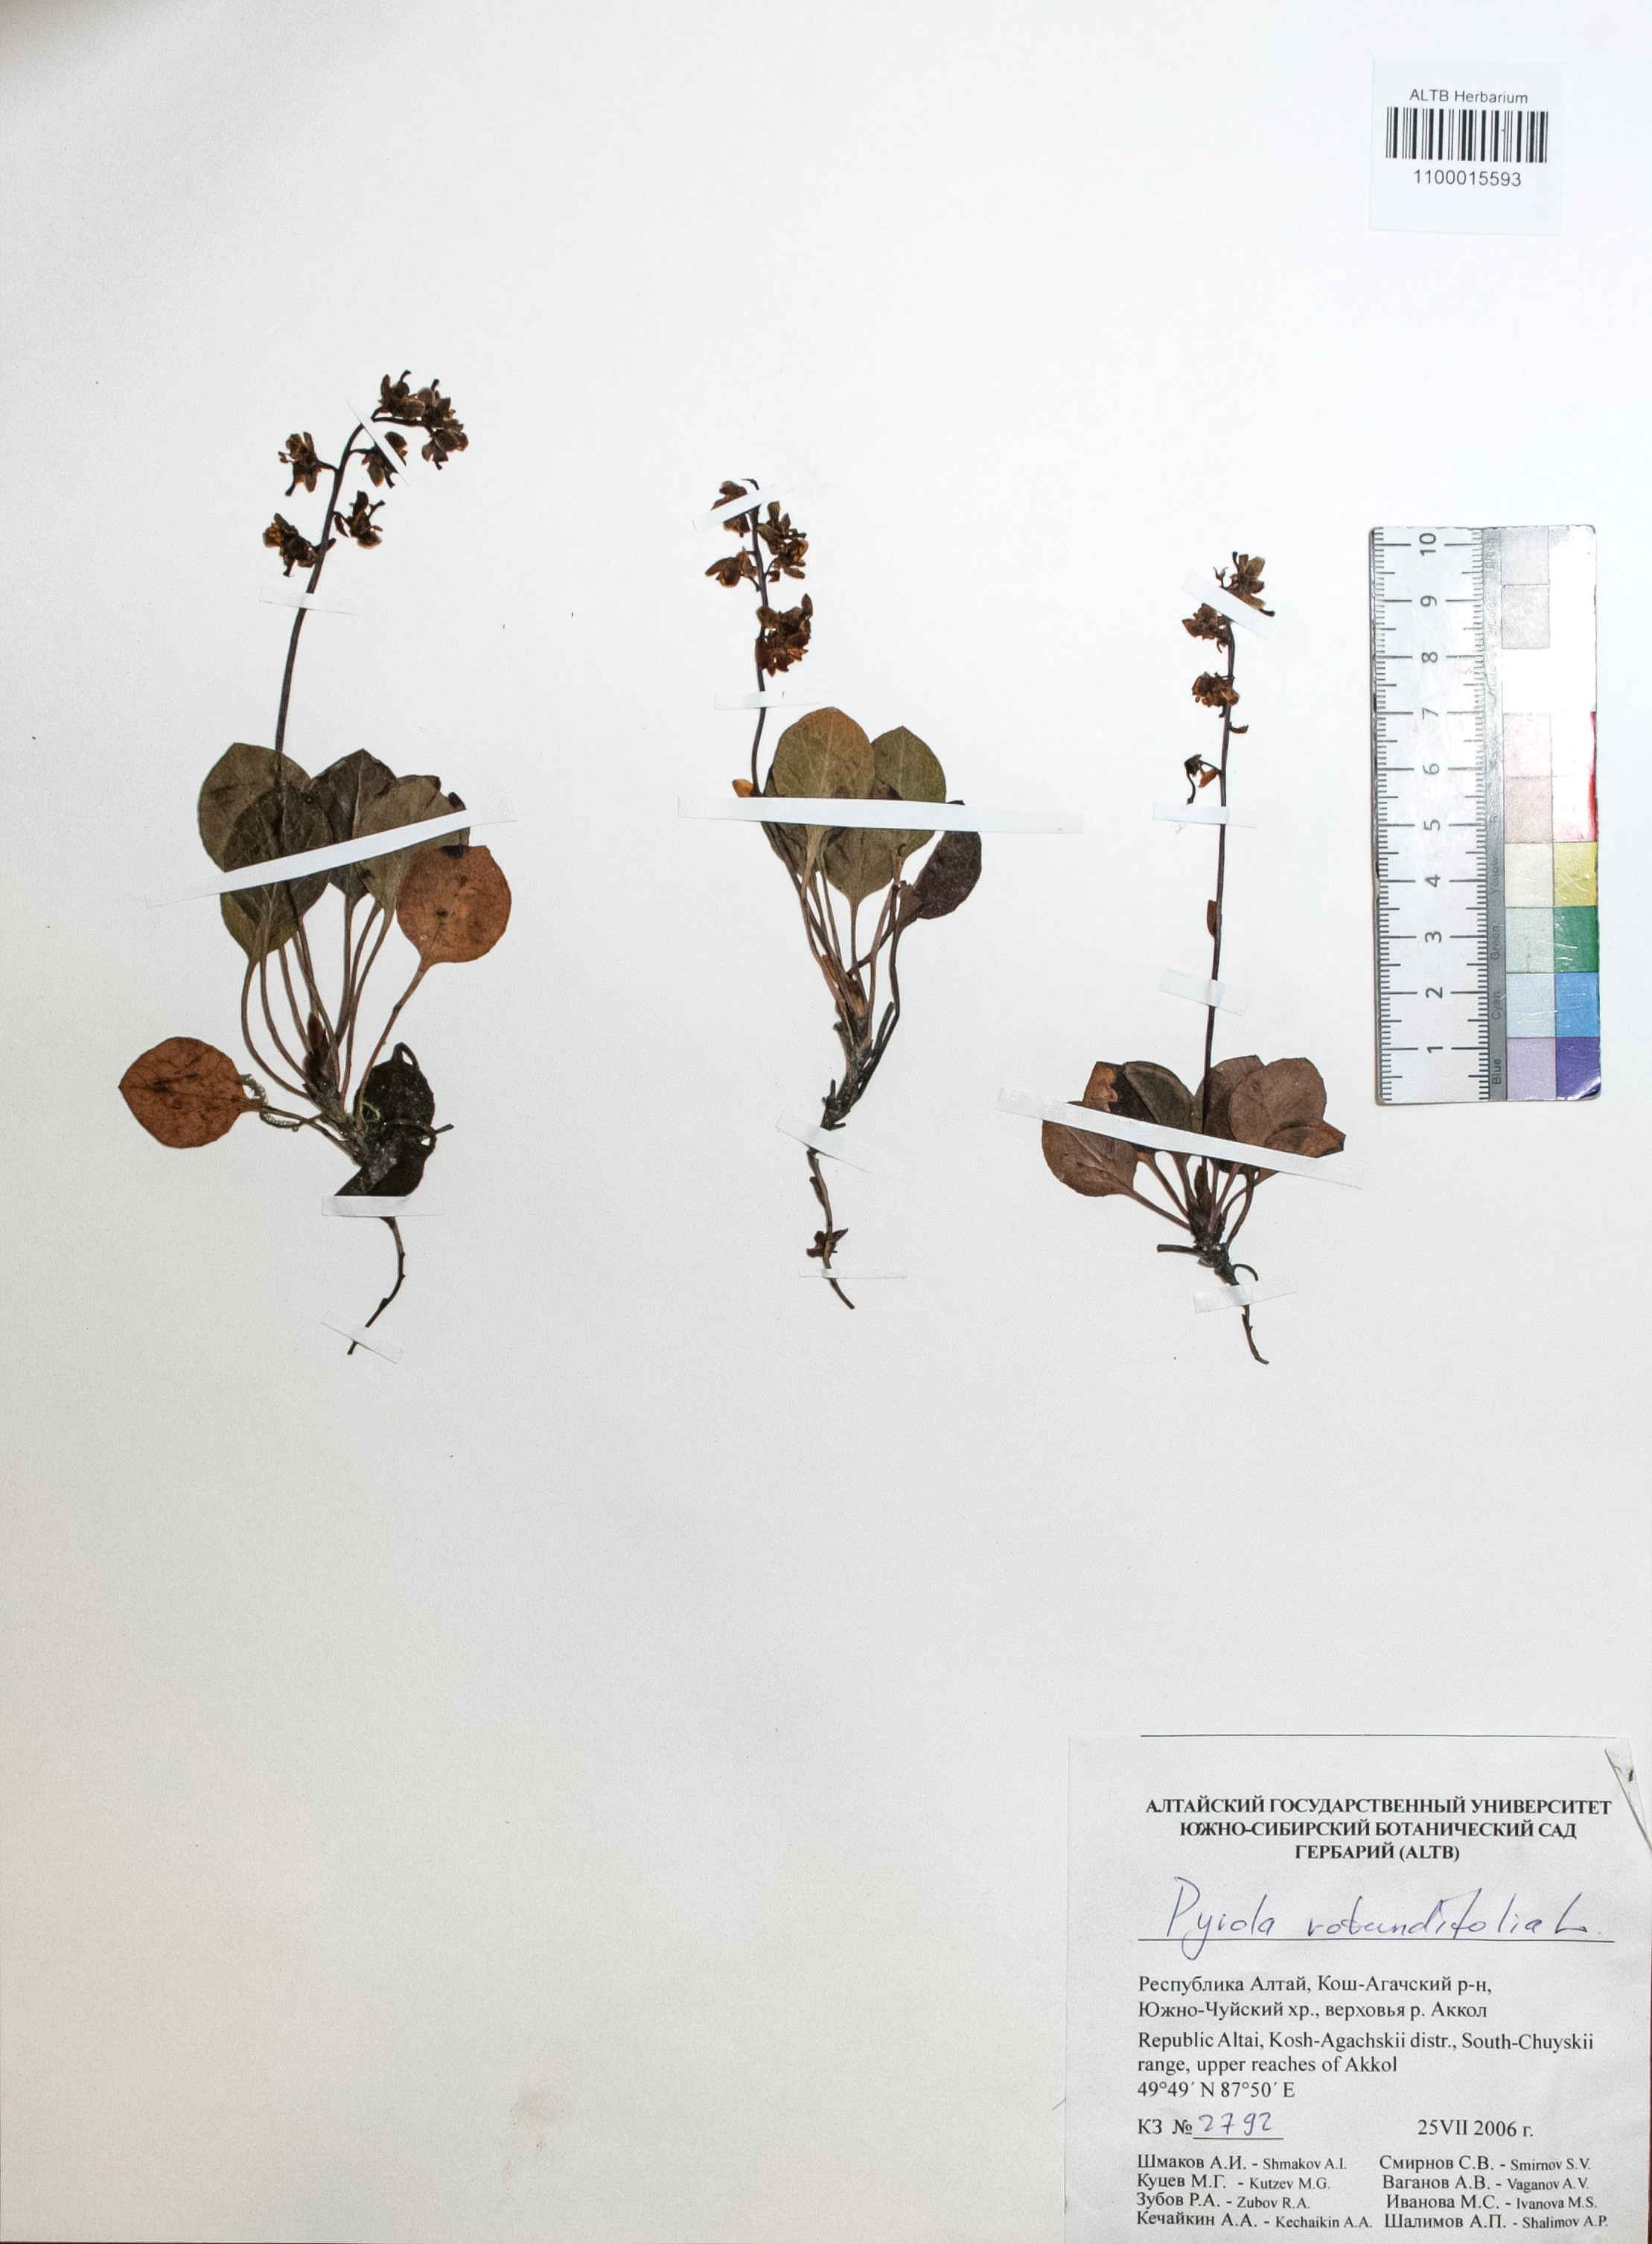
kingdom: Plantae
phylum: Tracheophyta
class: Magnoliopsida
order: Ericales
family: Ericaceae
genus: Pyrola
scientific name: Pyrola rotundifolia
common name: Round-leaved wintergreen
